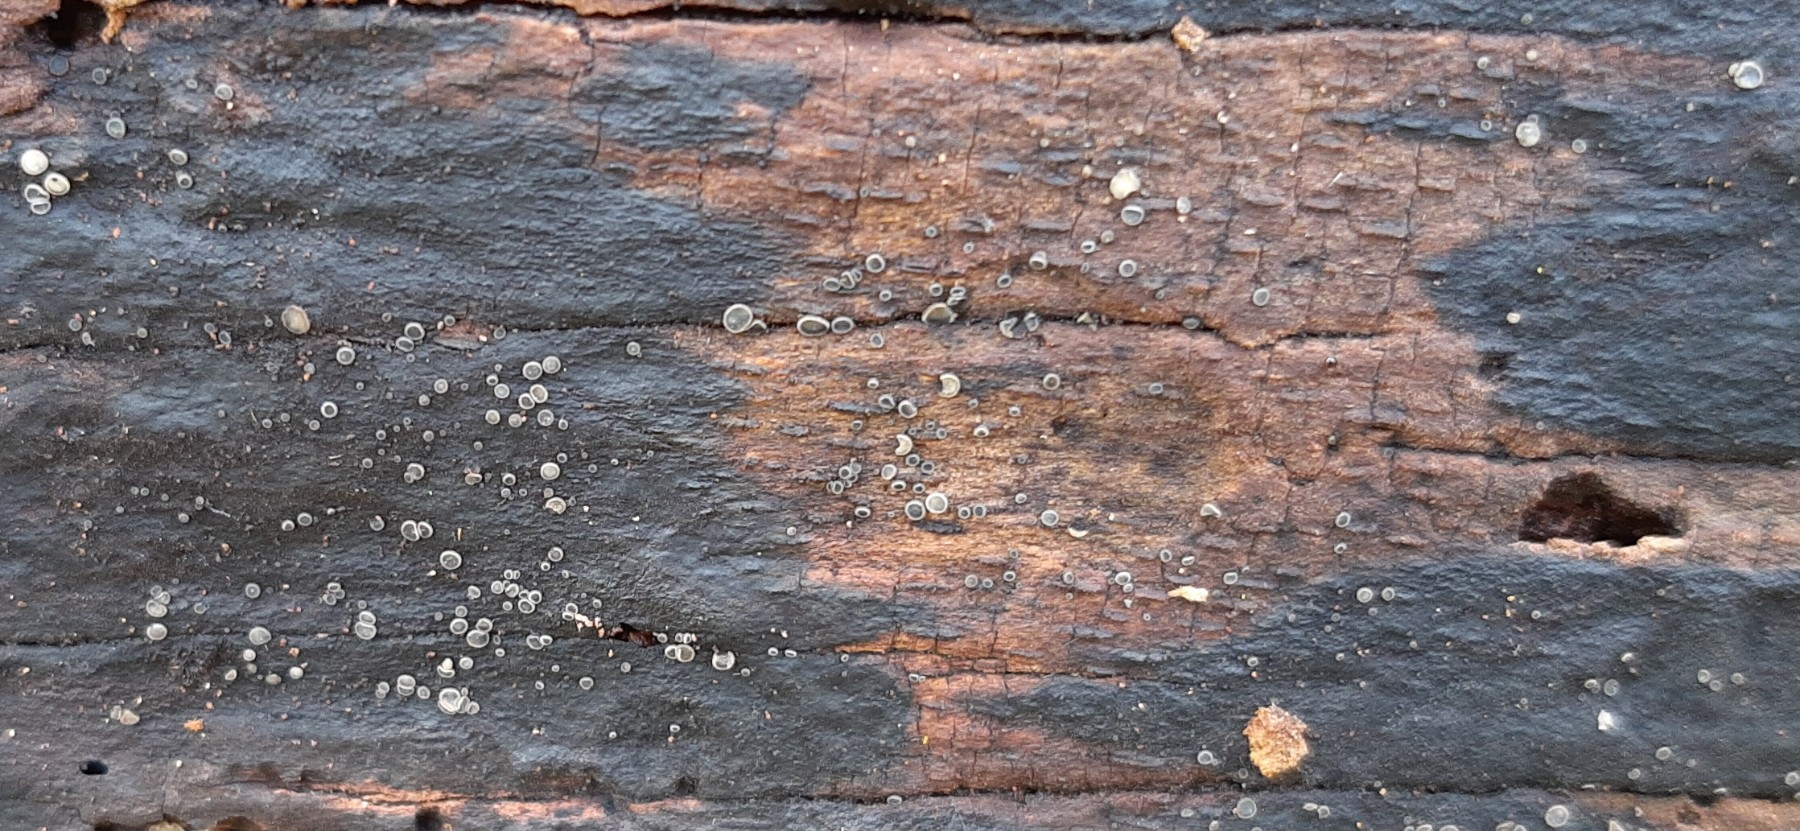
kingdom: Fungi
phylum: Ascomycota
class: Leotiomycetes
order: Helotiales
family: Mollisiaceae
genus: Mollisia
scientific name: Mollisia cinerea
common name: almindelig gråskive
